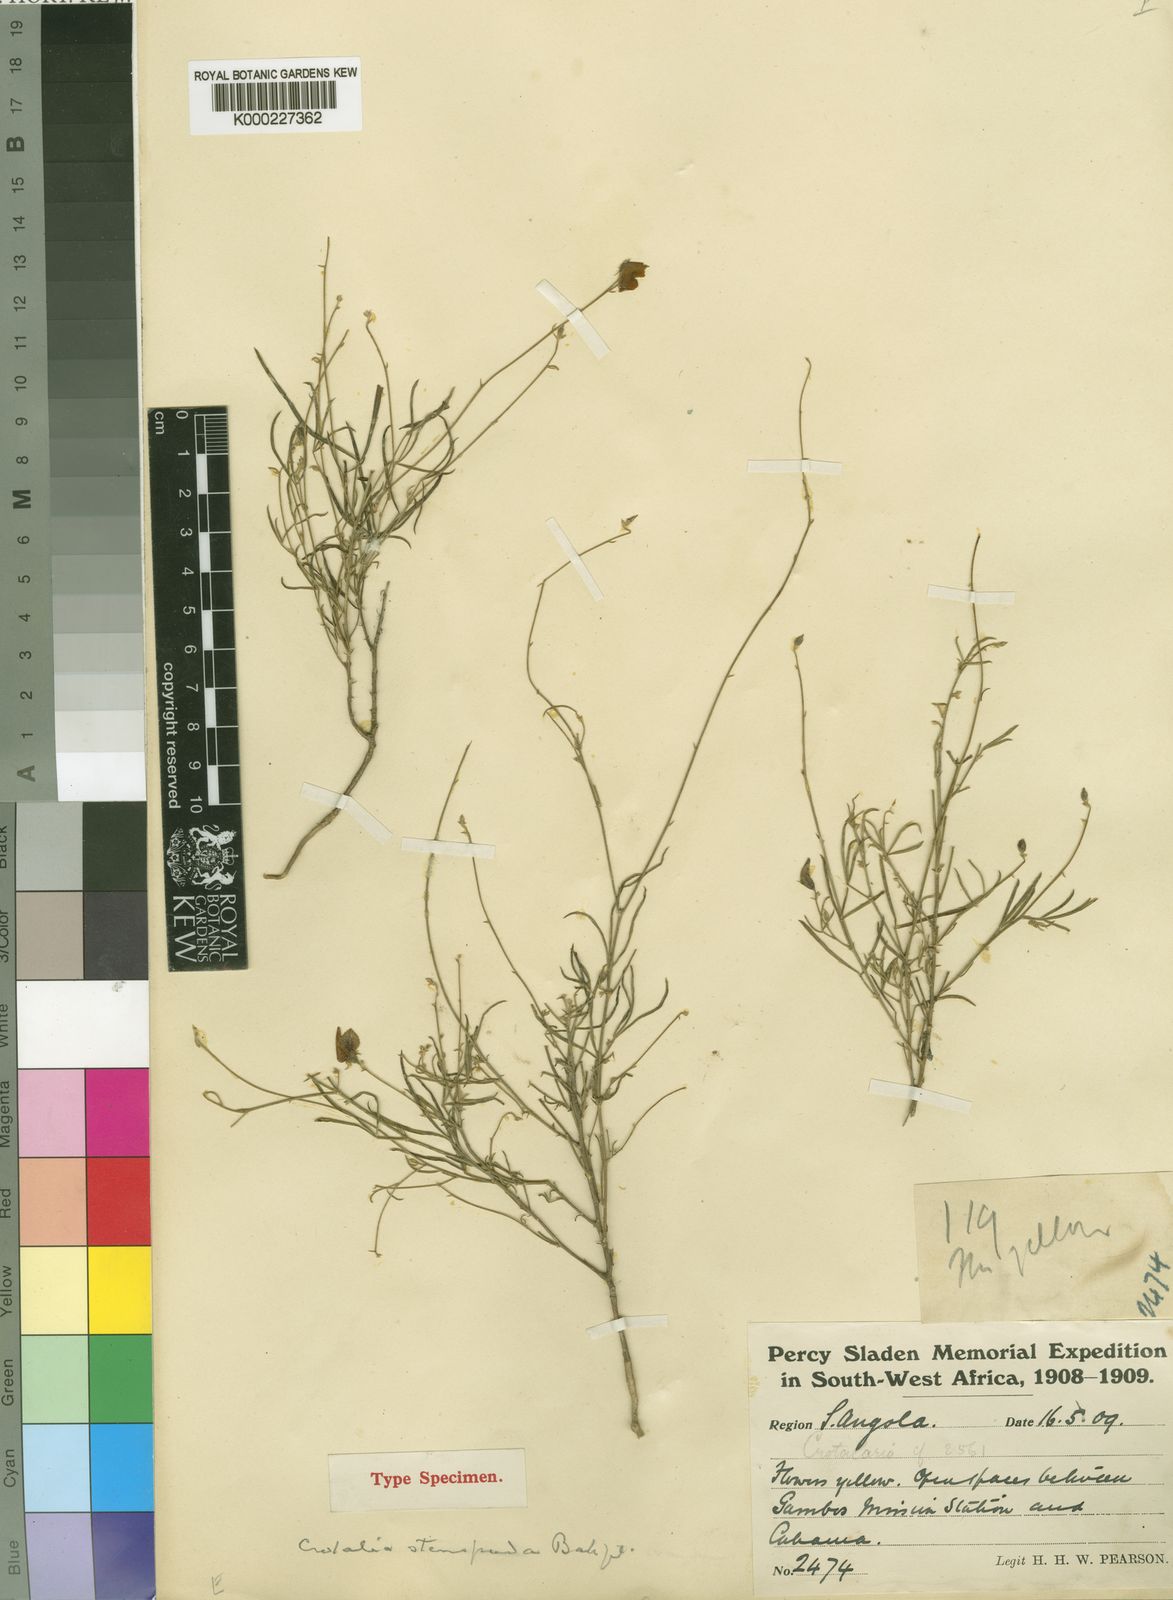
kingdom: Plantae
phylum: Tracheophyta
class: Magnoliopsida
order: Fabales
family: Fabaceae
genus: Crotalaria
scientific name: Crotalaria stenopoda
